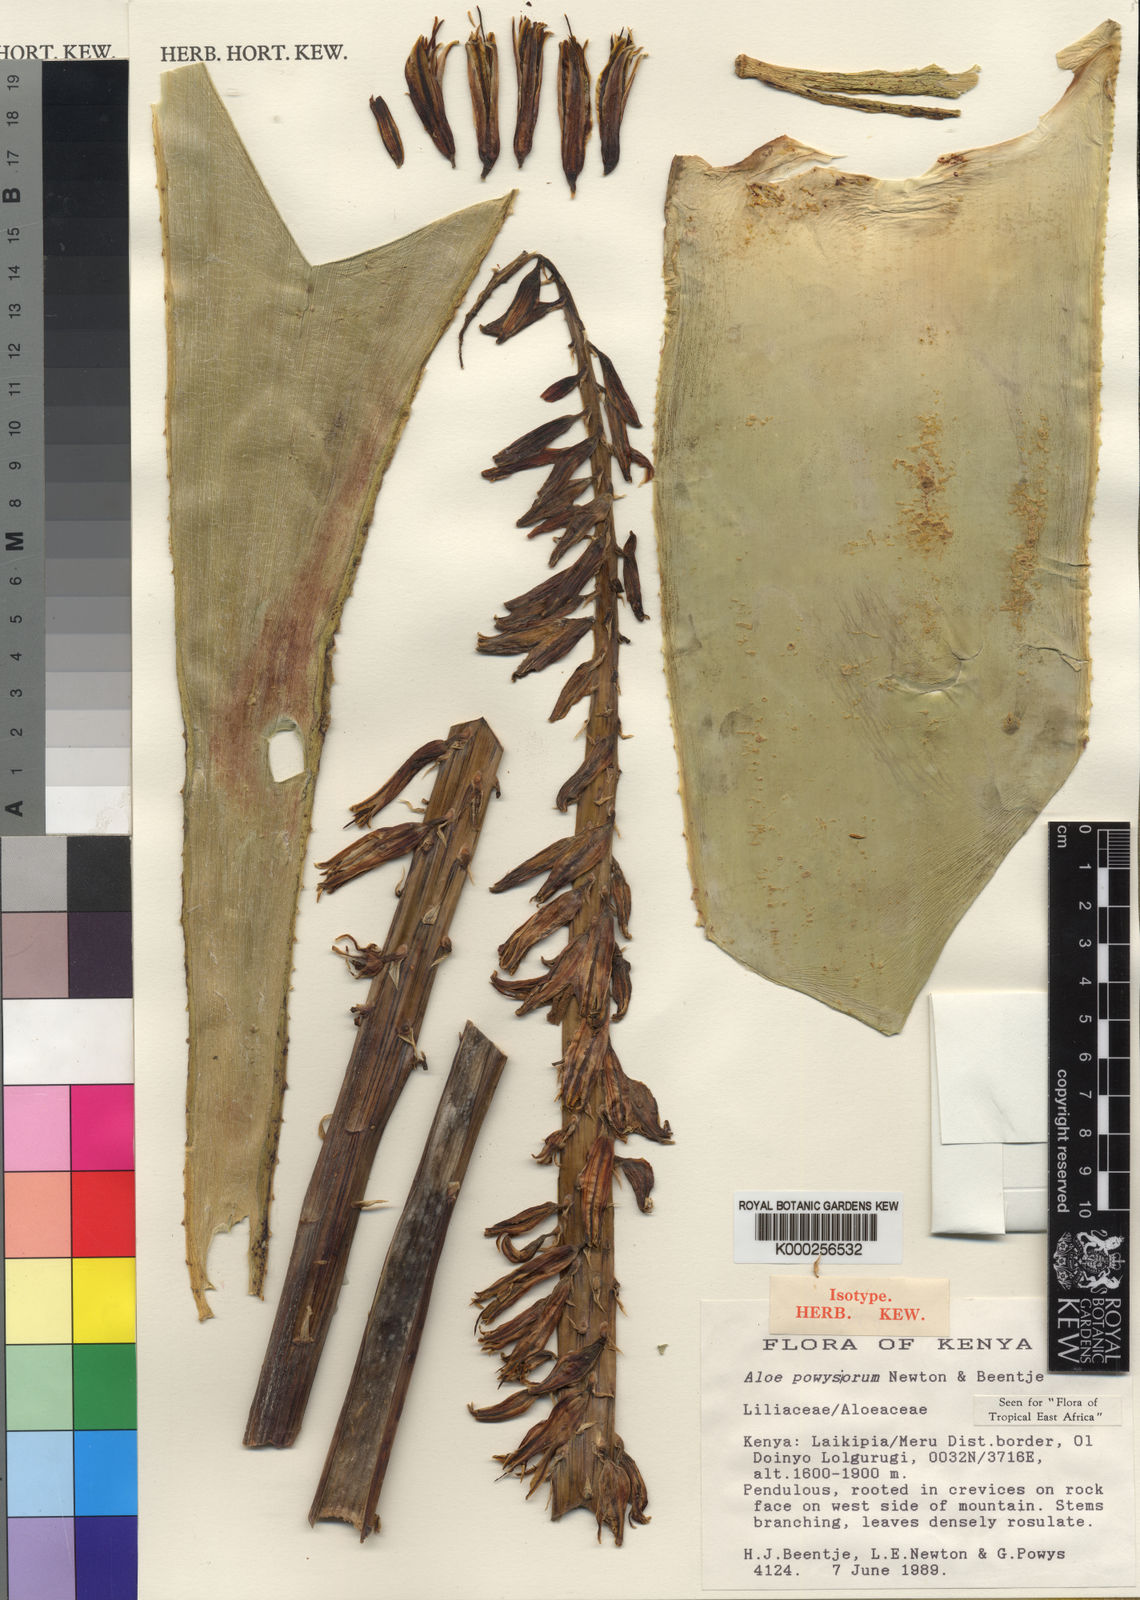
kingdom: Plantae
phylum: Tracheophyta
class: Liliopsida
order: Asparagales
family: Asphodelaceae
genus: Aloe
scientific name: Aloe powysiorum
